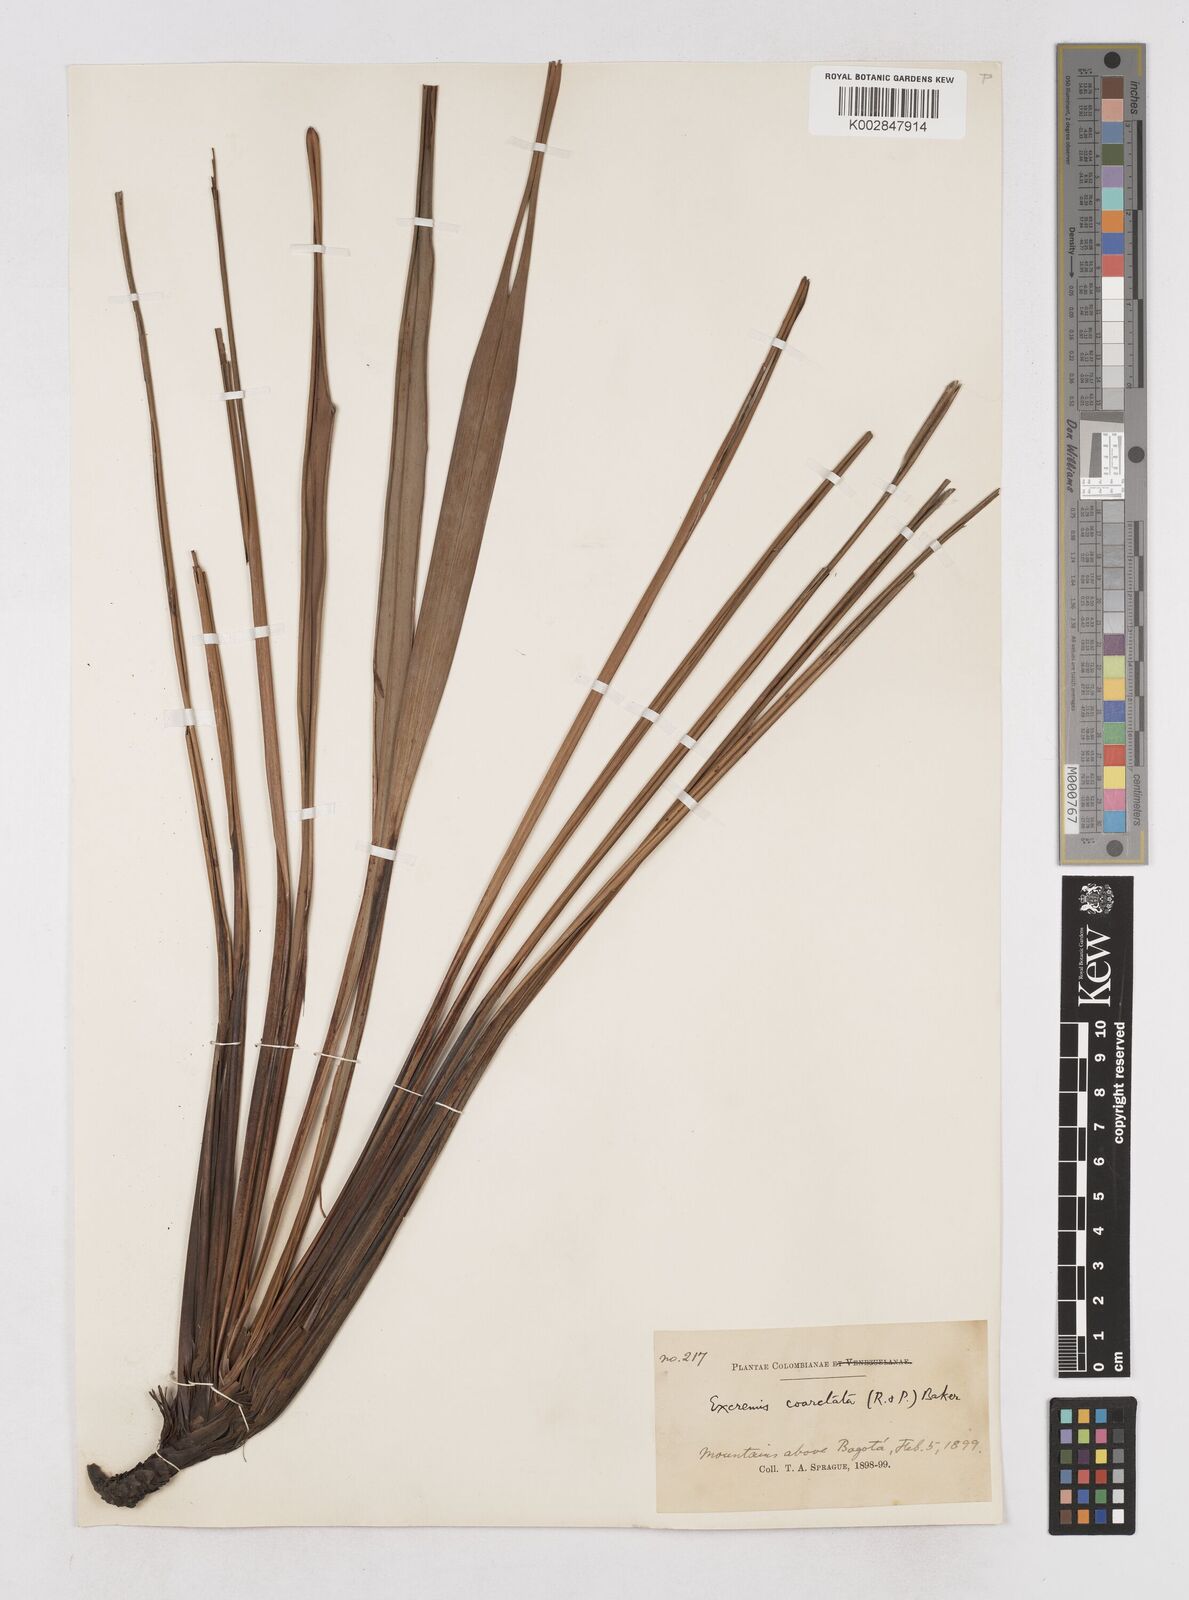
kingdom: Plantae
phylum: Tracheophyta
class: Liliopsida
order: Asparagales
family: Asphodelaceae
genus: Excremis
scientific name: Excremis coarctata
